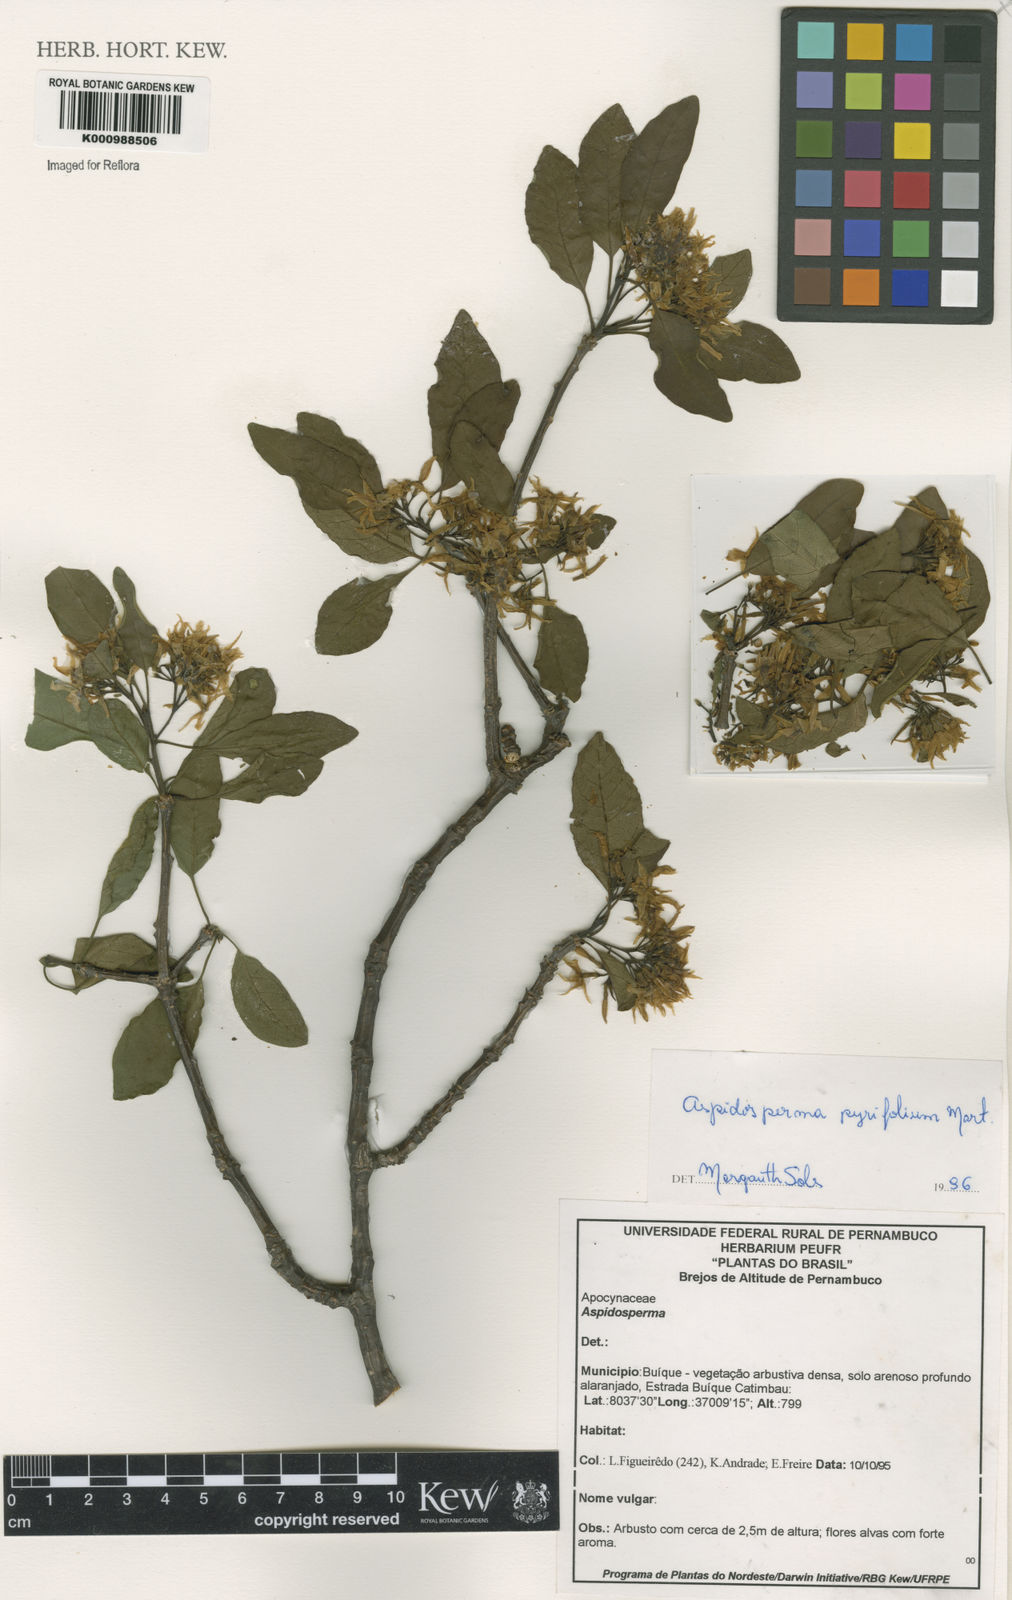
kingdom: Plantae
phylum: Tracheophyta
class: Magnoliopsida
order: Gentianales
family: Apocynaceae
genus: Aspidosperma
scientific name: Aspidosperma pyrifolium
